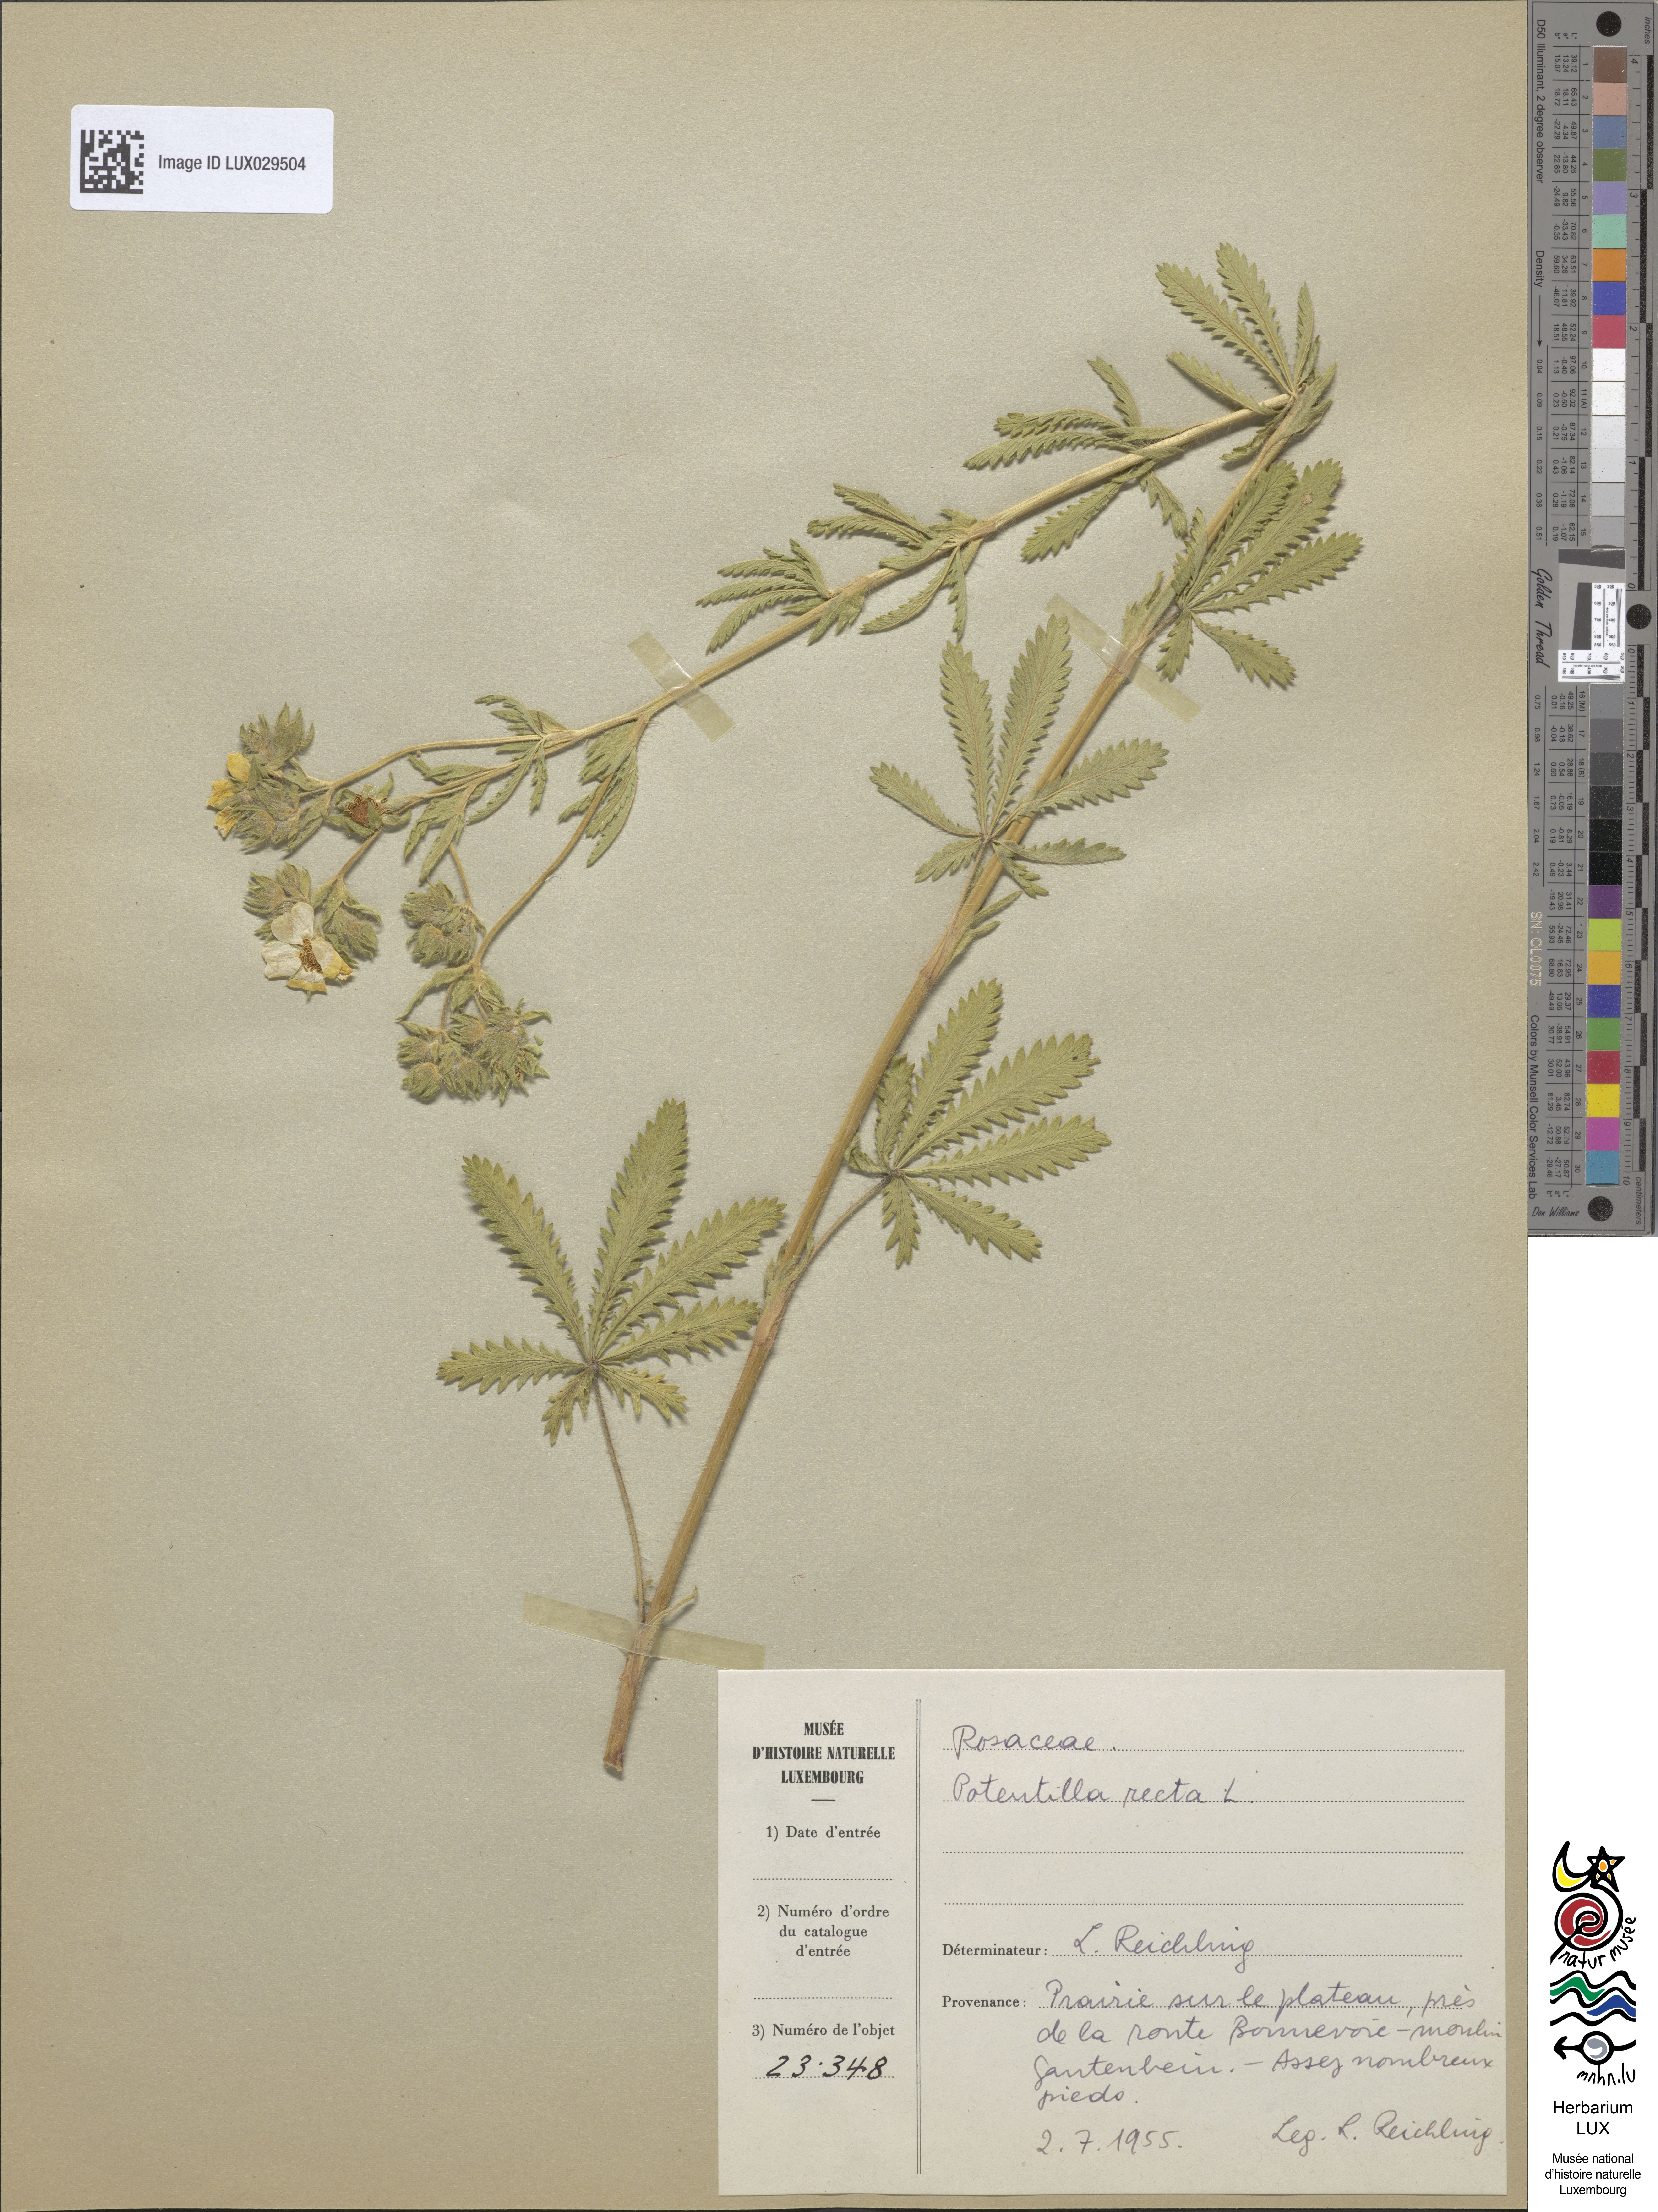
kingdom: Plantae
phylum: Tracheophyta
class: Magnoliopsida
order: Rosales
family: Rosaceae
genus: Potentilla
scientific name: Potentilla recta
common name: Sulphur cinquefoil
